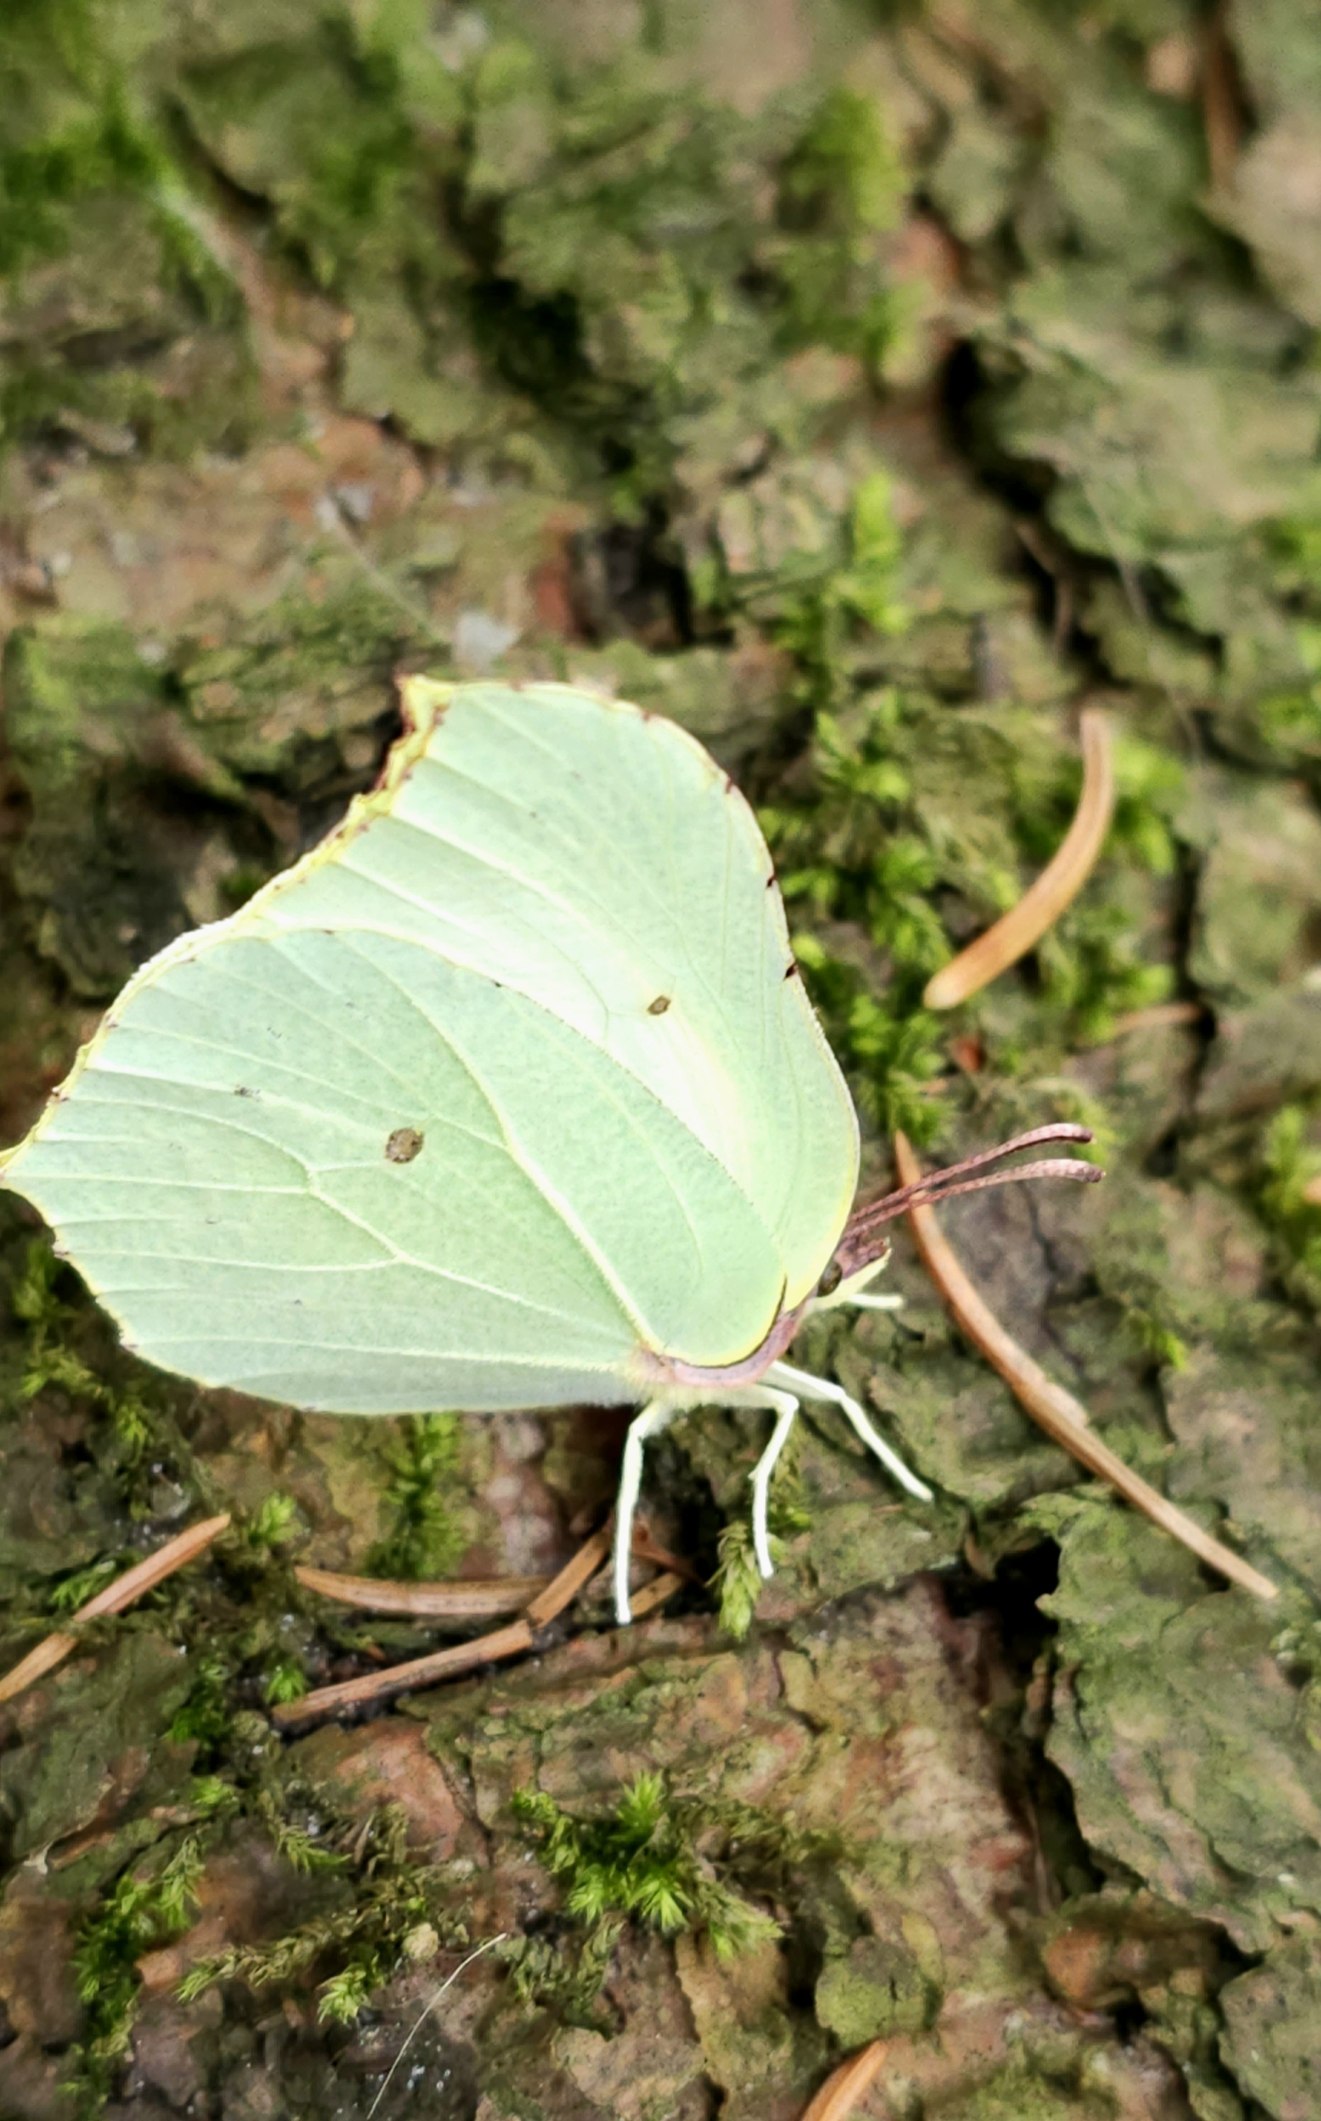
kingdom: Animalia
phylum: Arthropoda
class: Insecta
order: Lepidoptera
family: Pieridae
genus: Gonepteryx
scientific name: Gonepteryx rhamni
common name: Citronsommerfugl
